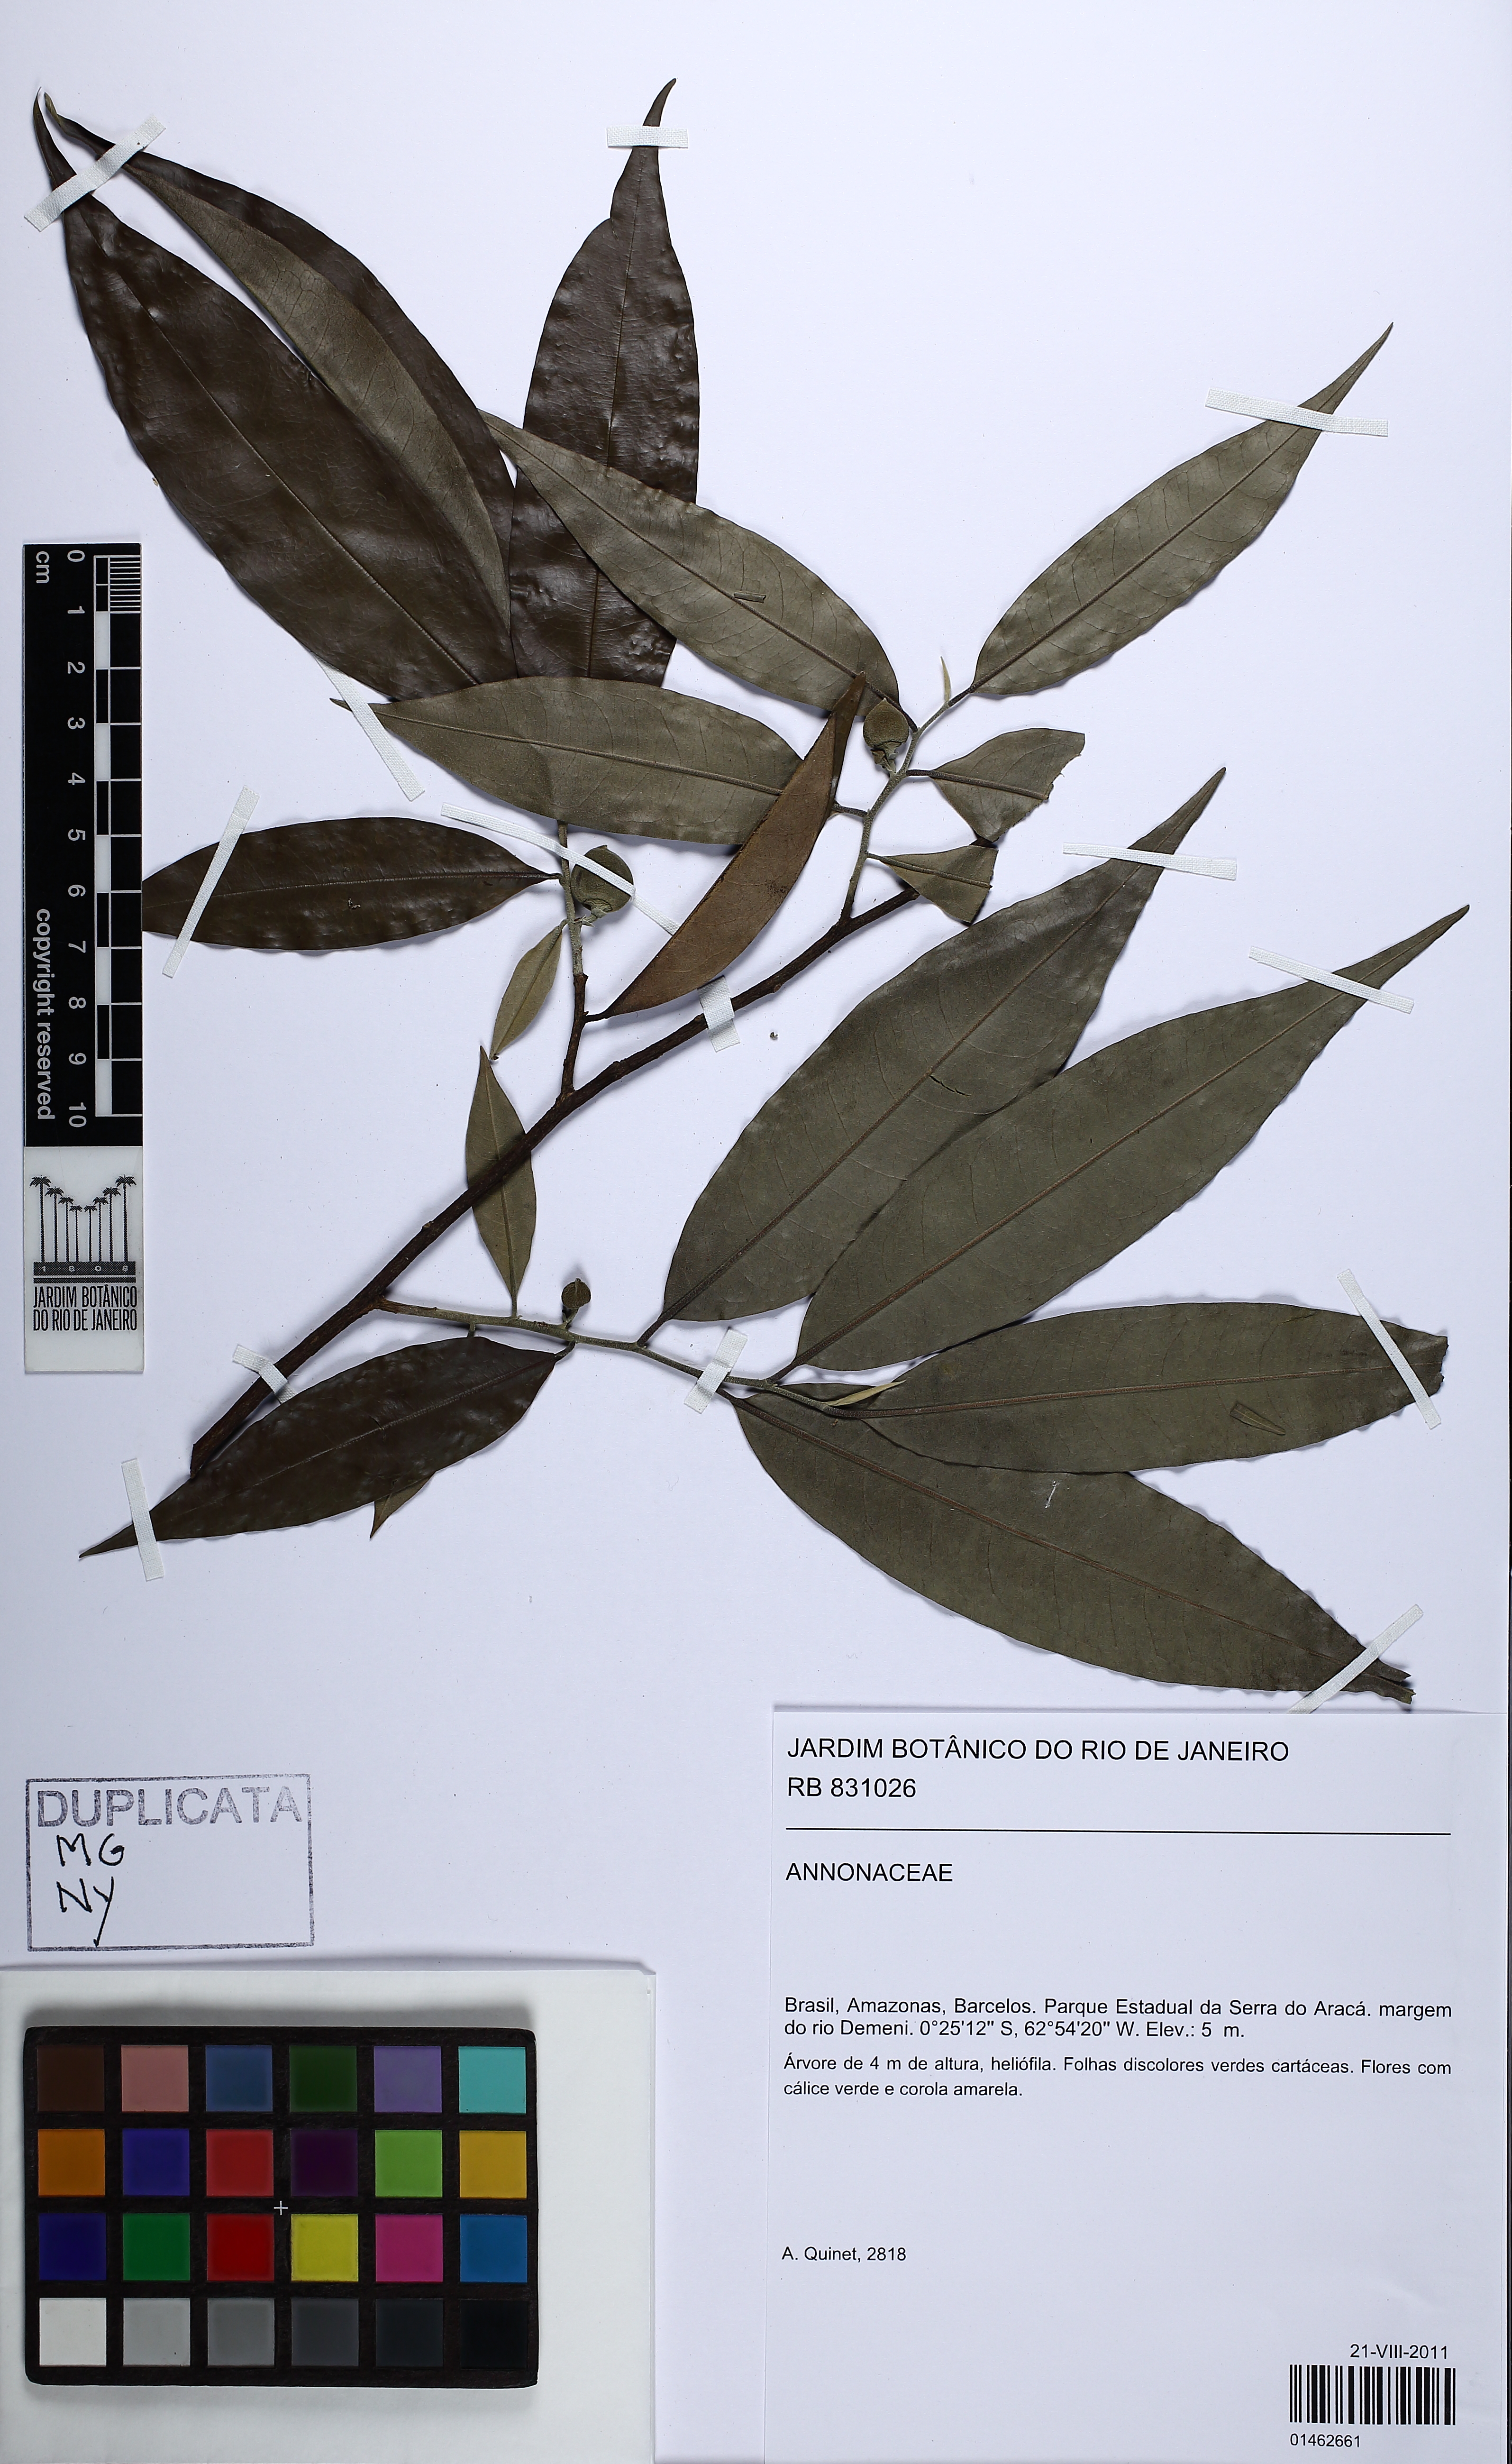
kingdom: Plantae
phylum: Tracheophyta
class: Magnoliopsida
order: Magnoliales
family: Annonaceae
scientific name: Annonaceae
